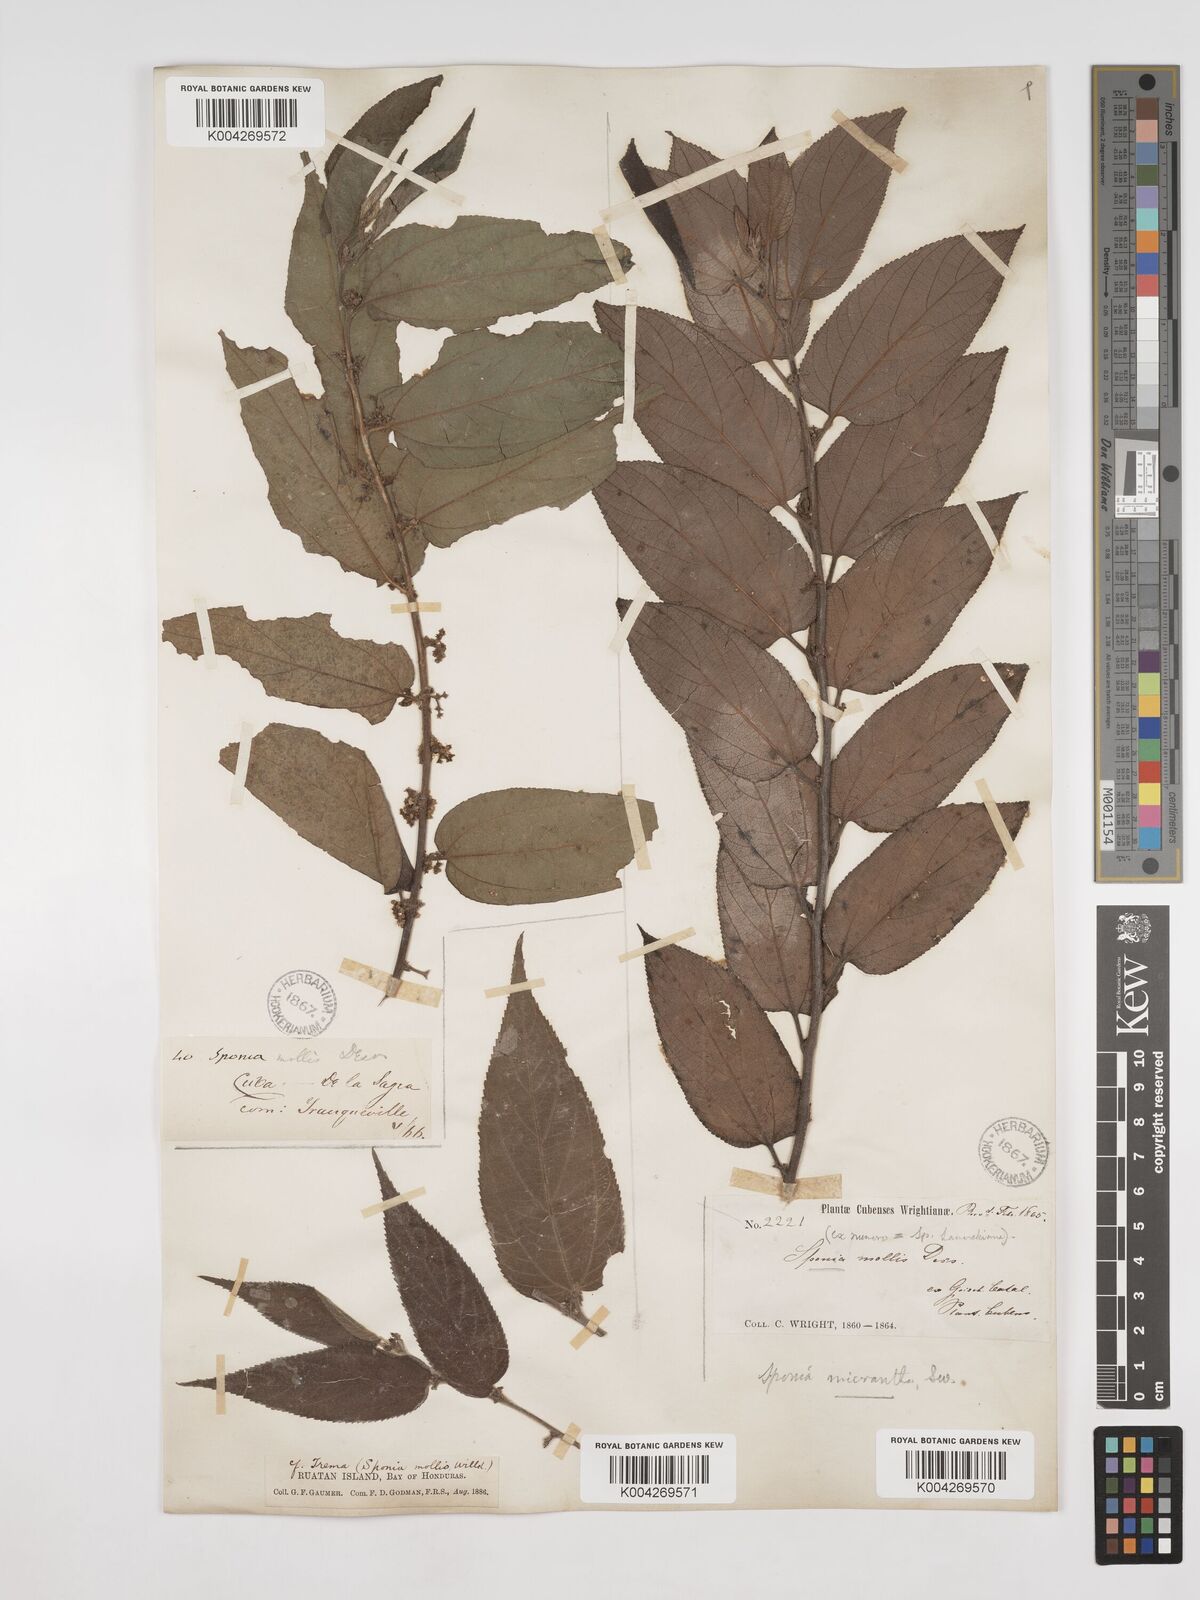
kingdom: Plantae
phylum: Tracheophyta
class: Magnoliopsida
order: Rosales
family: Cannabaceae
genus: Trema
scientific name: Trema micranthum
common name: Jamaican nettletree
